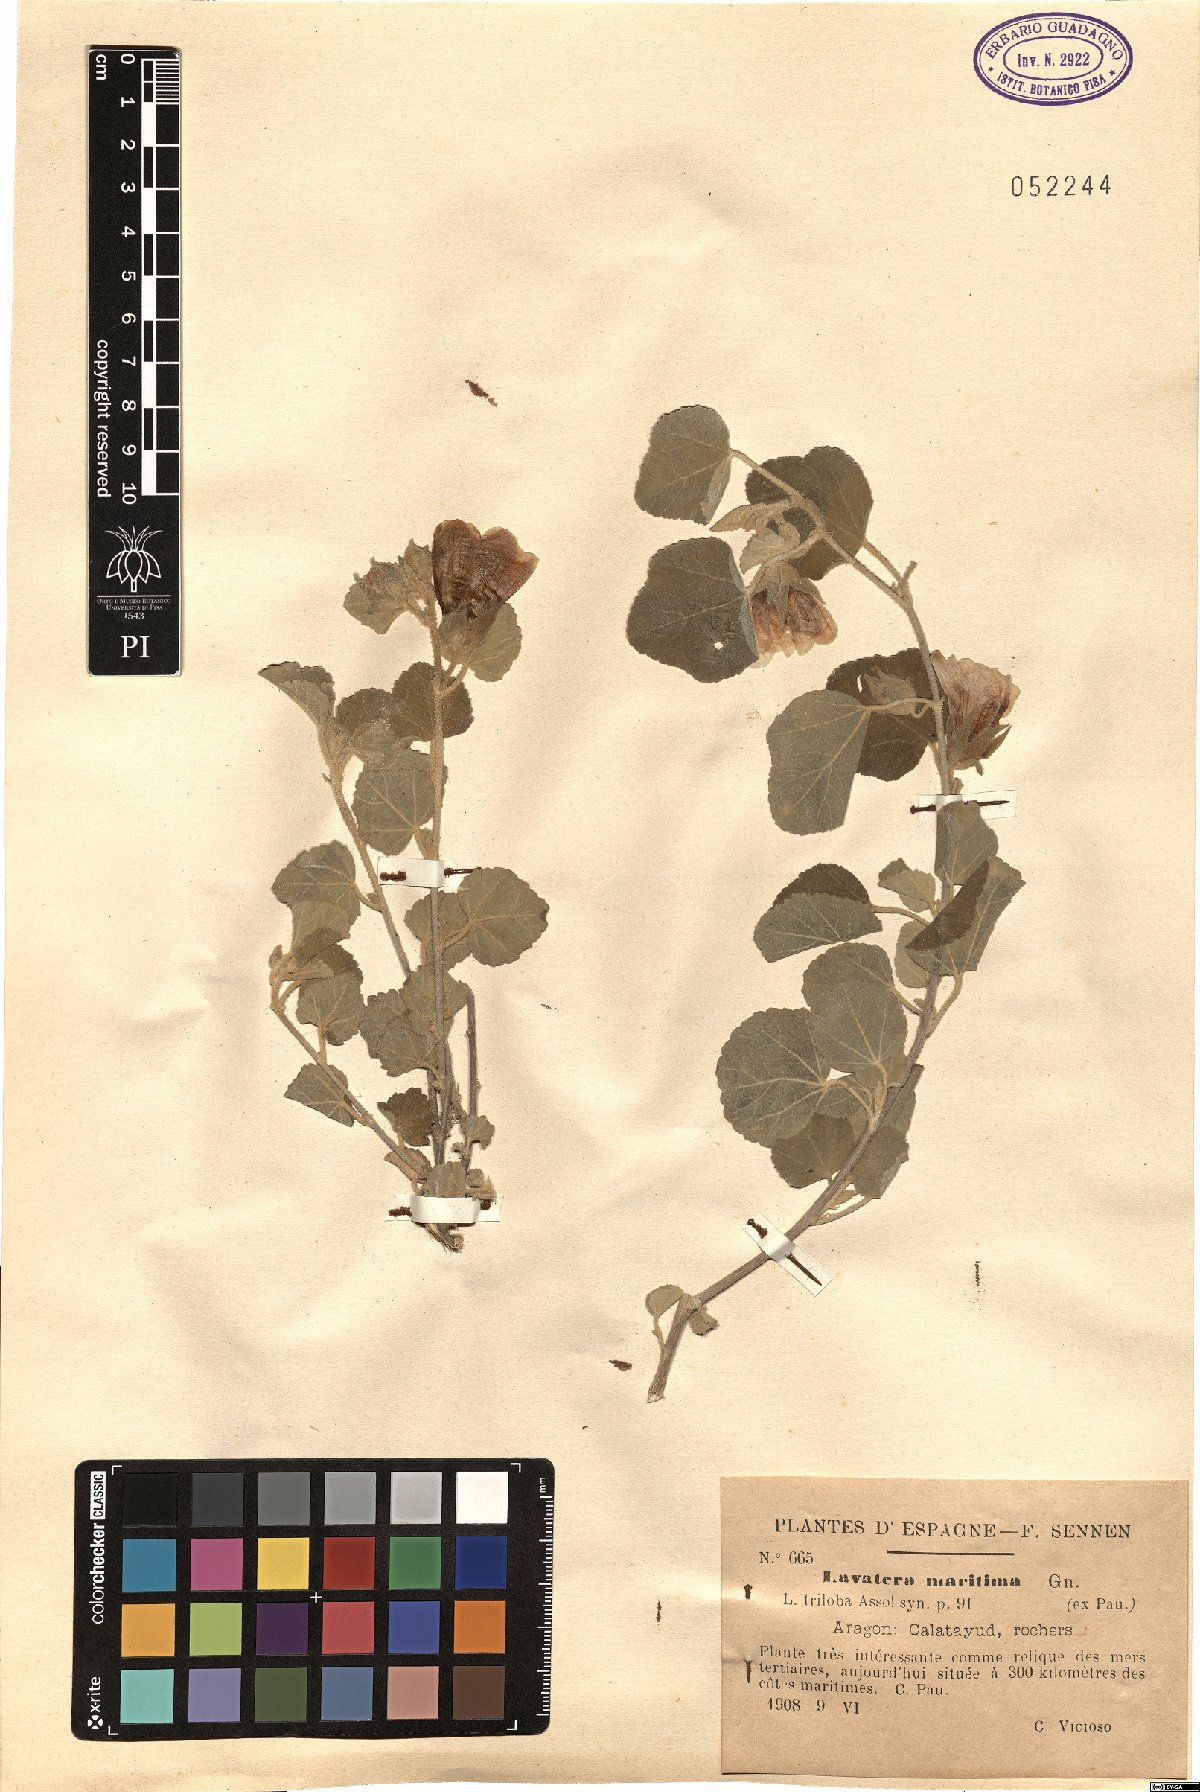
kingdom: Plantae
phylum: Tracheophyta
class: Magnoliopsida
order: Malvales
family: Malvaceae
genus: Malva
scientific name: Malva subovata
